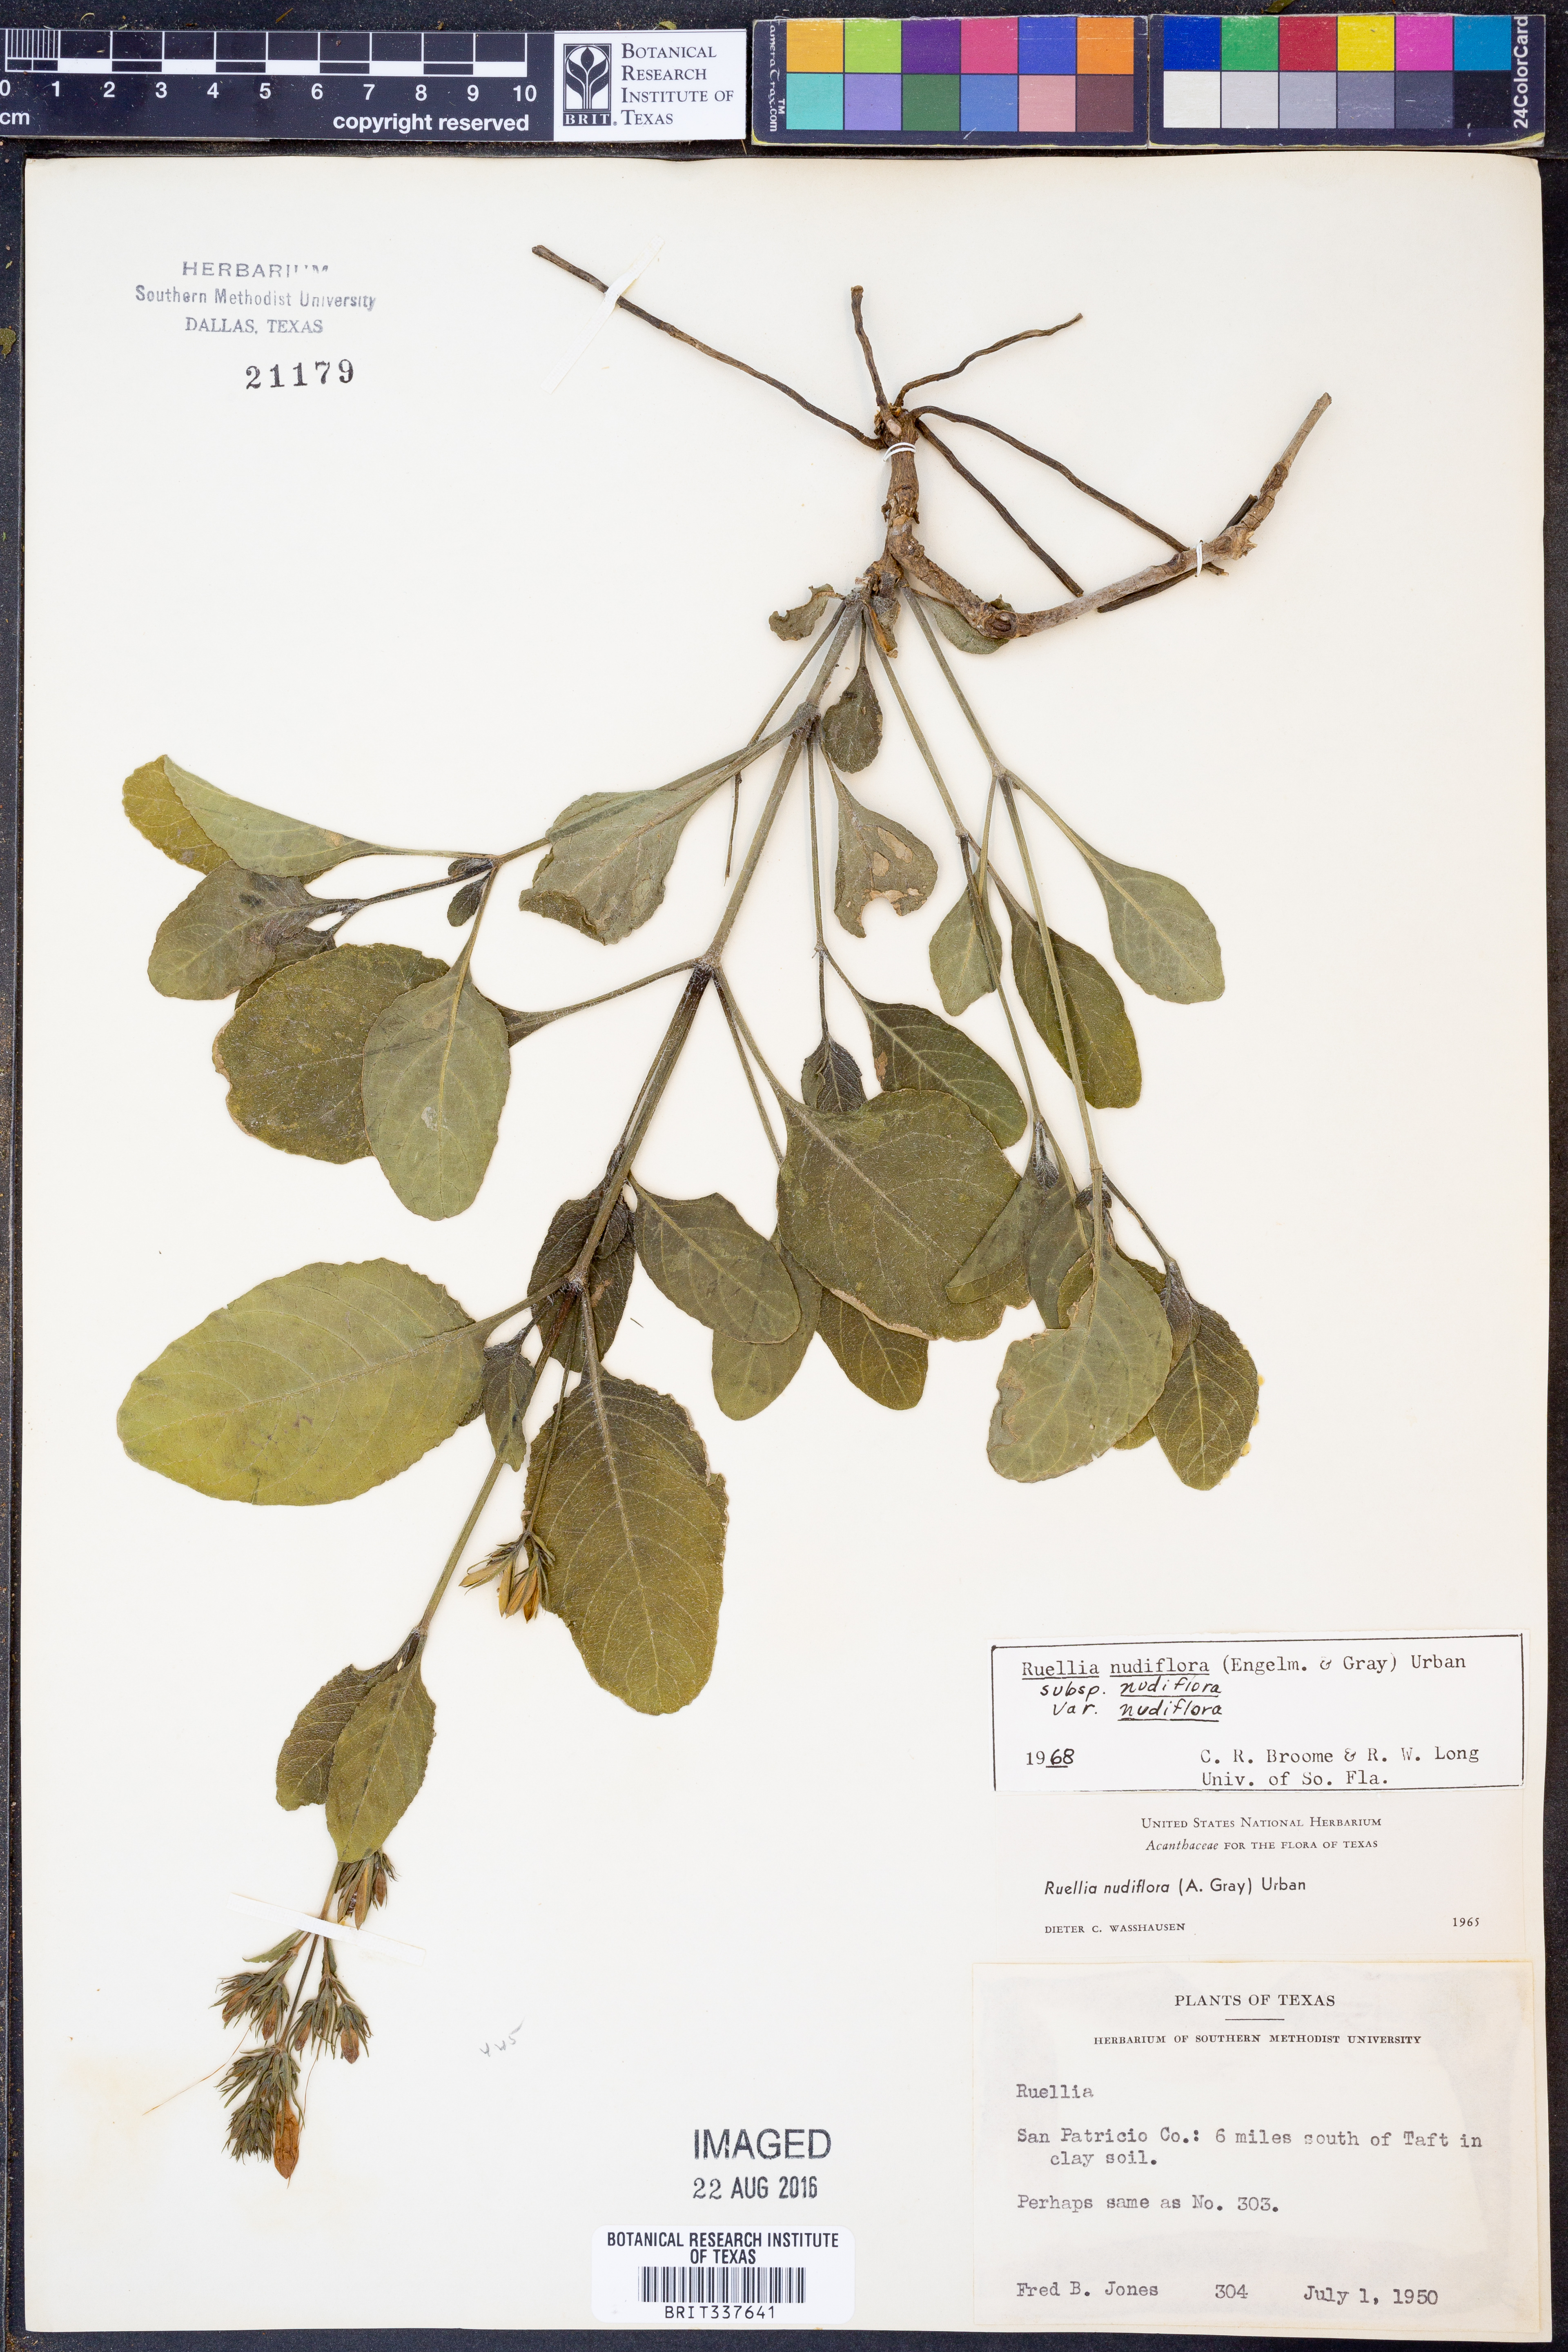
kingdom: Plantae
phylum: Tracheophyta
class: Magnoliopsida
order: Lamiales
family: Acanthaceae
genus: Ruellia
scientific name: Ruellia ciliatiflora
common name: Hairyflower wild petunia
